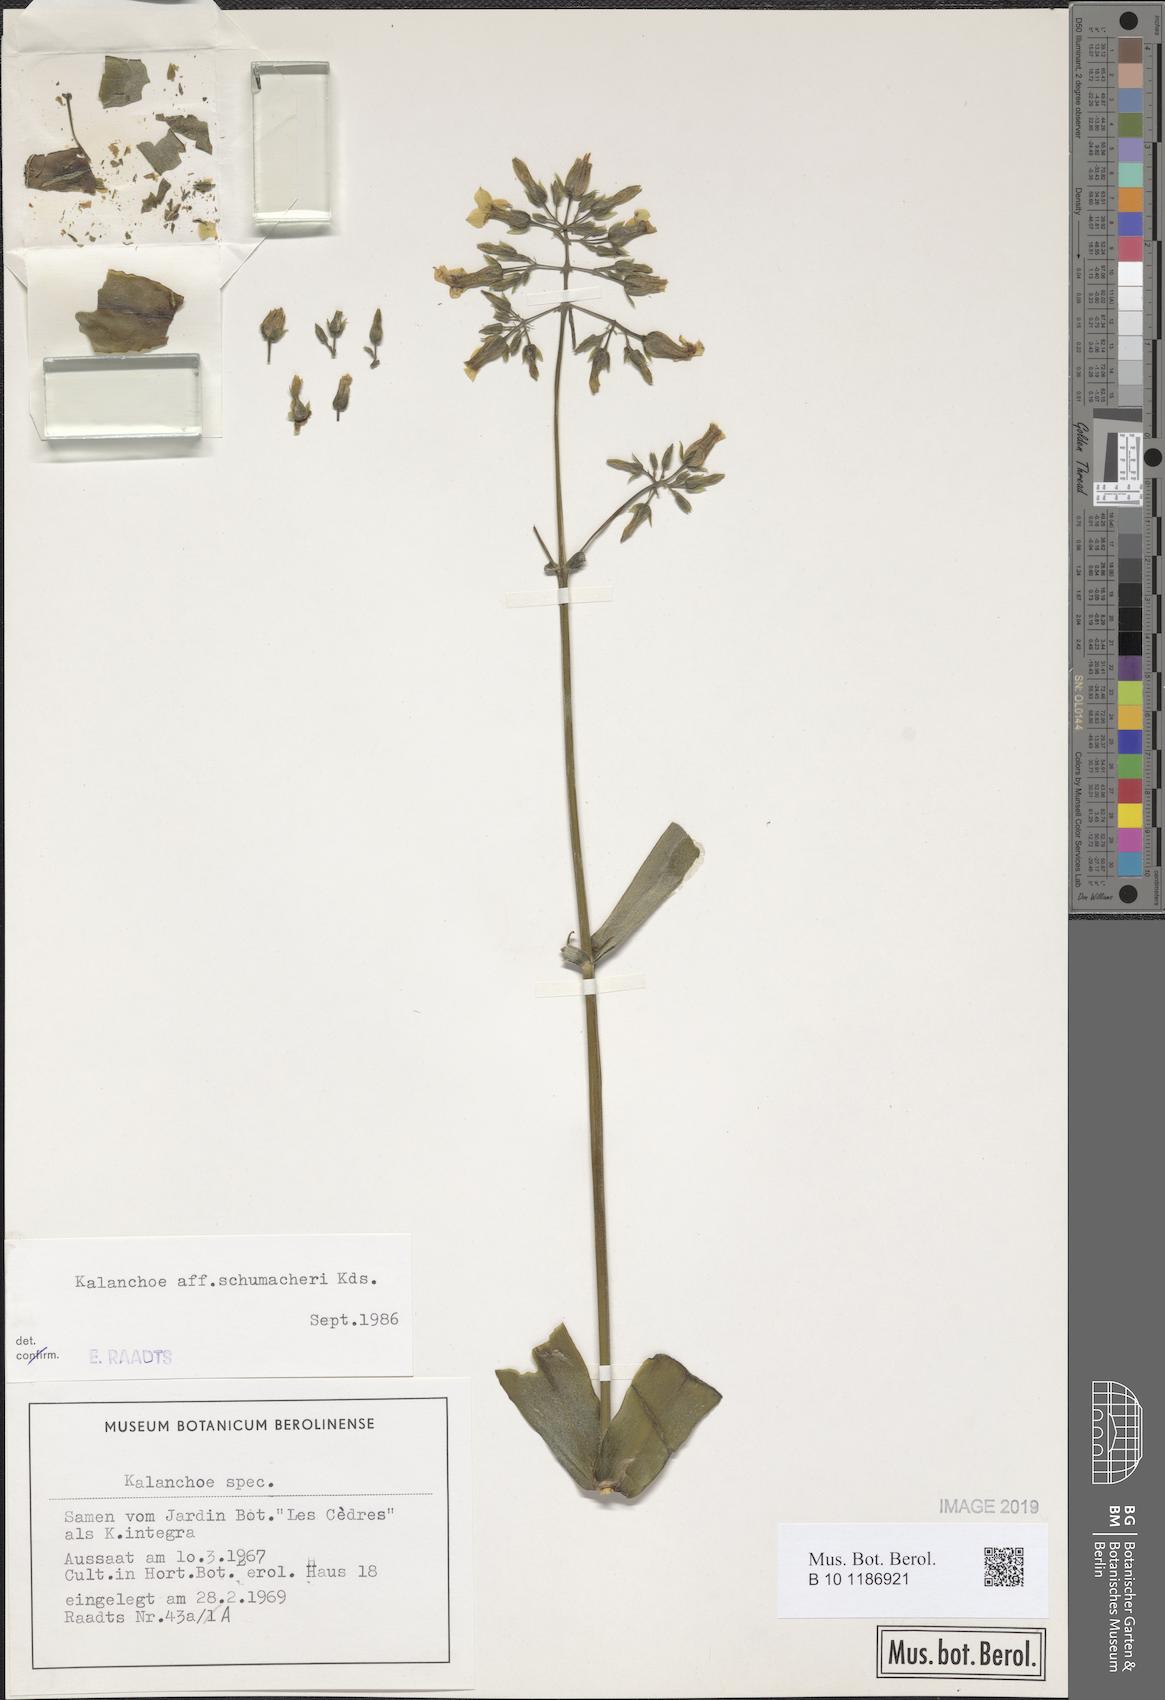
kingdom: Plantae
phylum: Tracheophyta
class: Magnoliopsida
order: Saxifragales
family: Crassulaceae
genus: Kalanchoe
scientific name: Kalanchoe integra
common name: Neverdie
